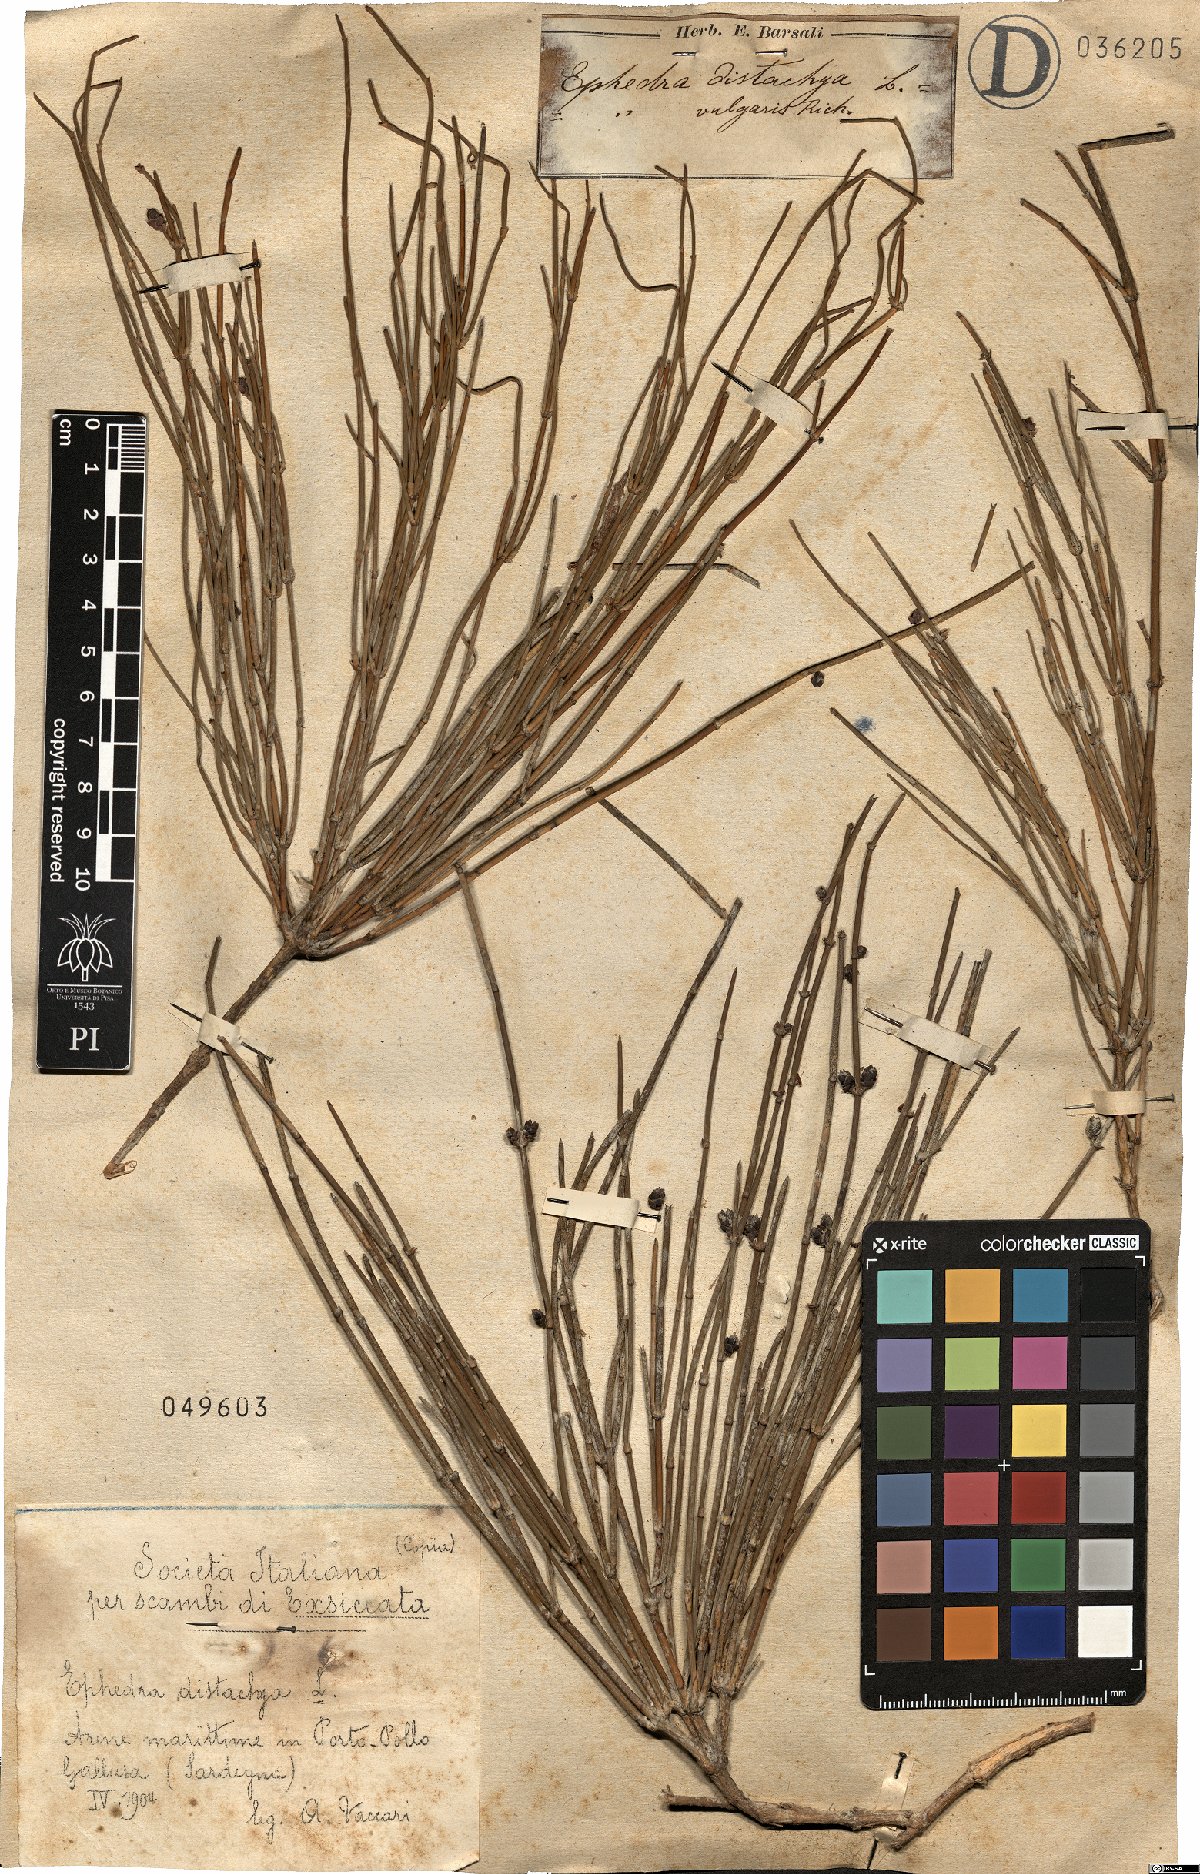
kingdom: Plantae
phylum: Tracheophyta
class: Gnetopsida
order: Ephedrales
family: Ephedraceae
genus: Ephedra
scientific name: Ephedra distachya
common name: Sea grape
